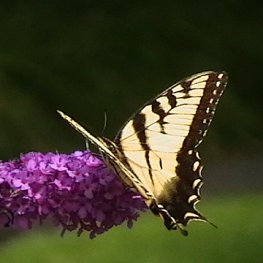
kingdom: Animalia
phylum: Arthropoda
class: Insecta
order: Lepidoptera
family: Papilionidae
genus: Pterourus
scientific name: Pterourus glaucus
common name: Eastern Tiger Swallowtail
